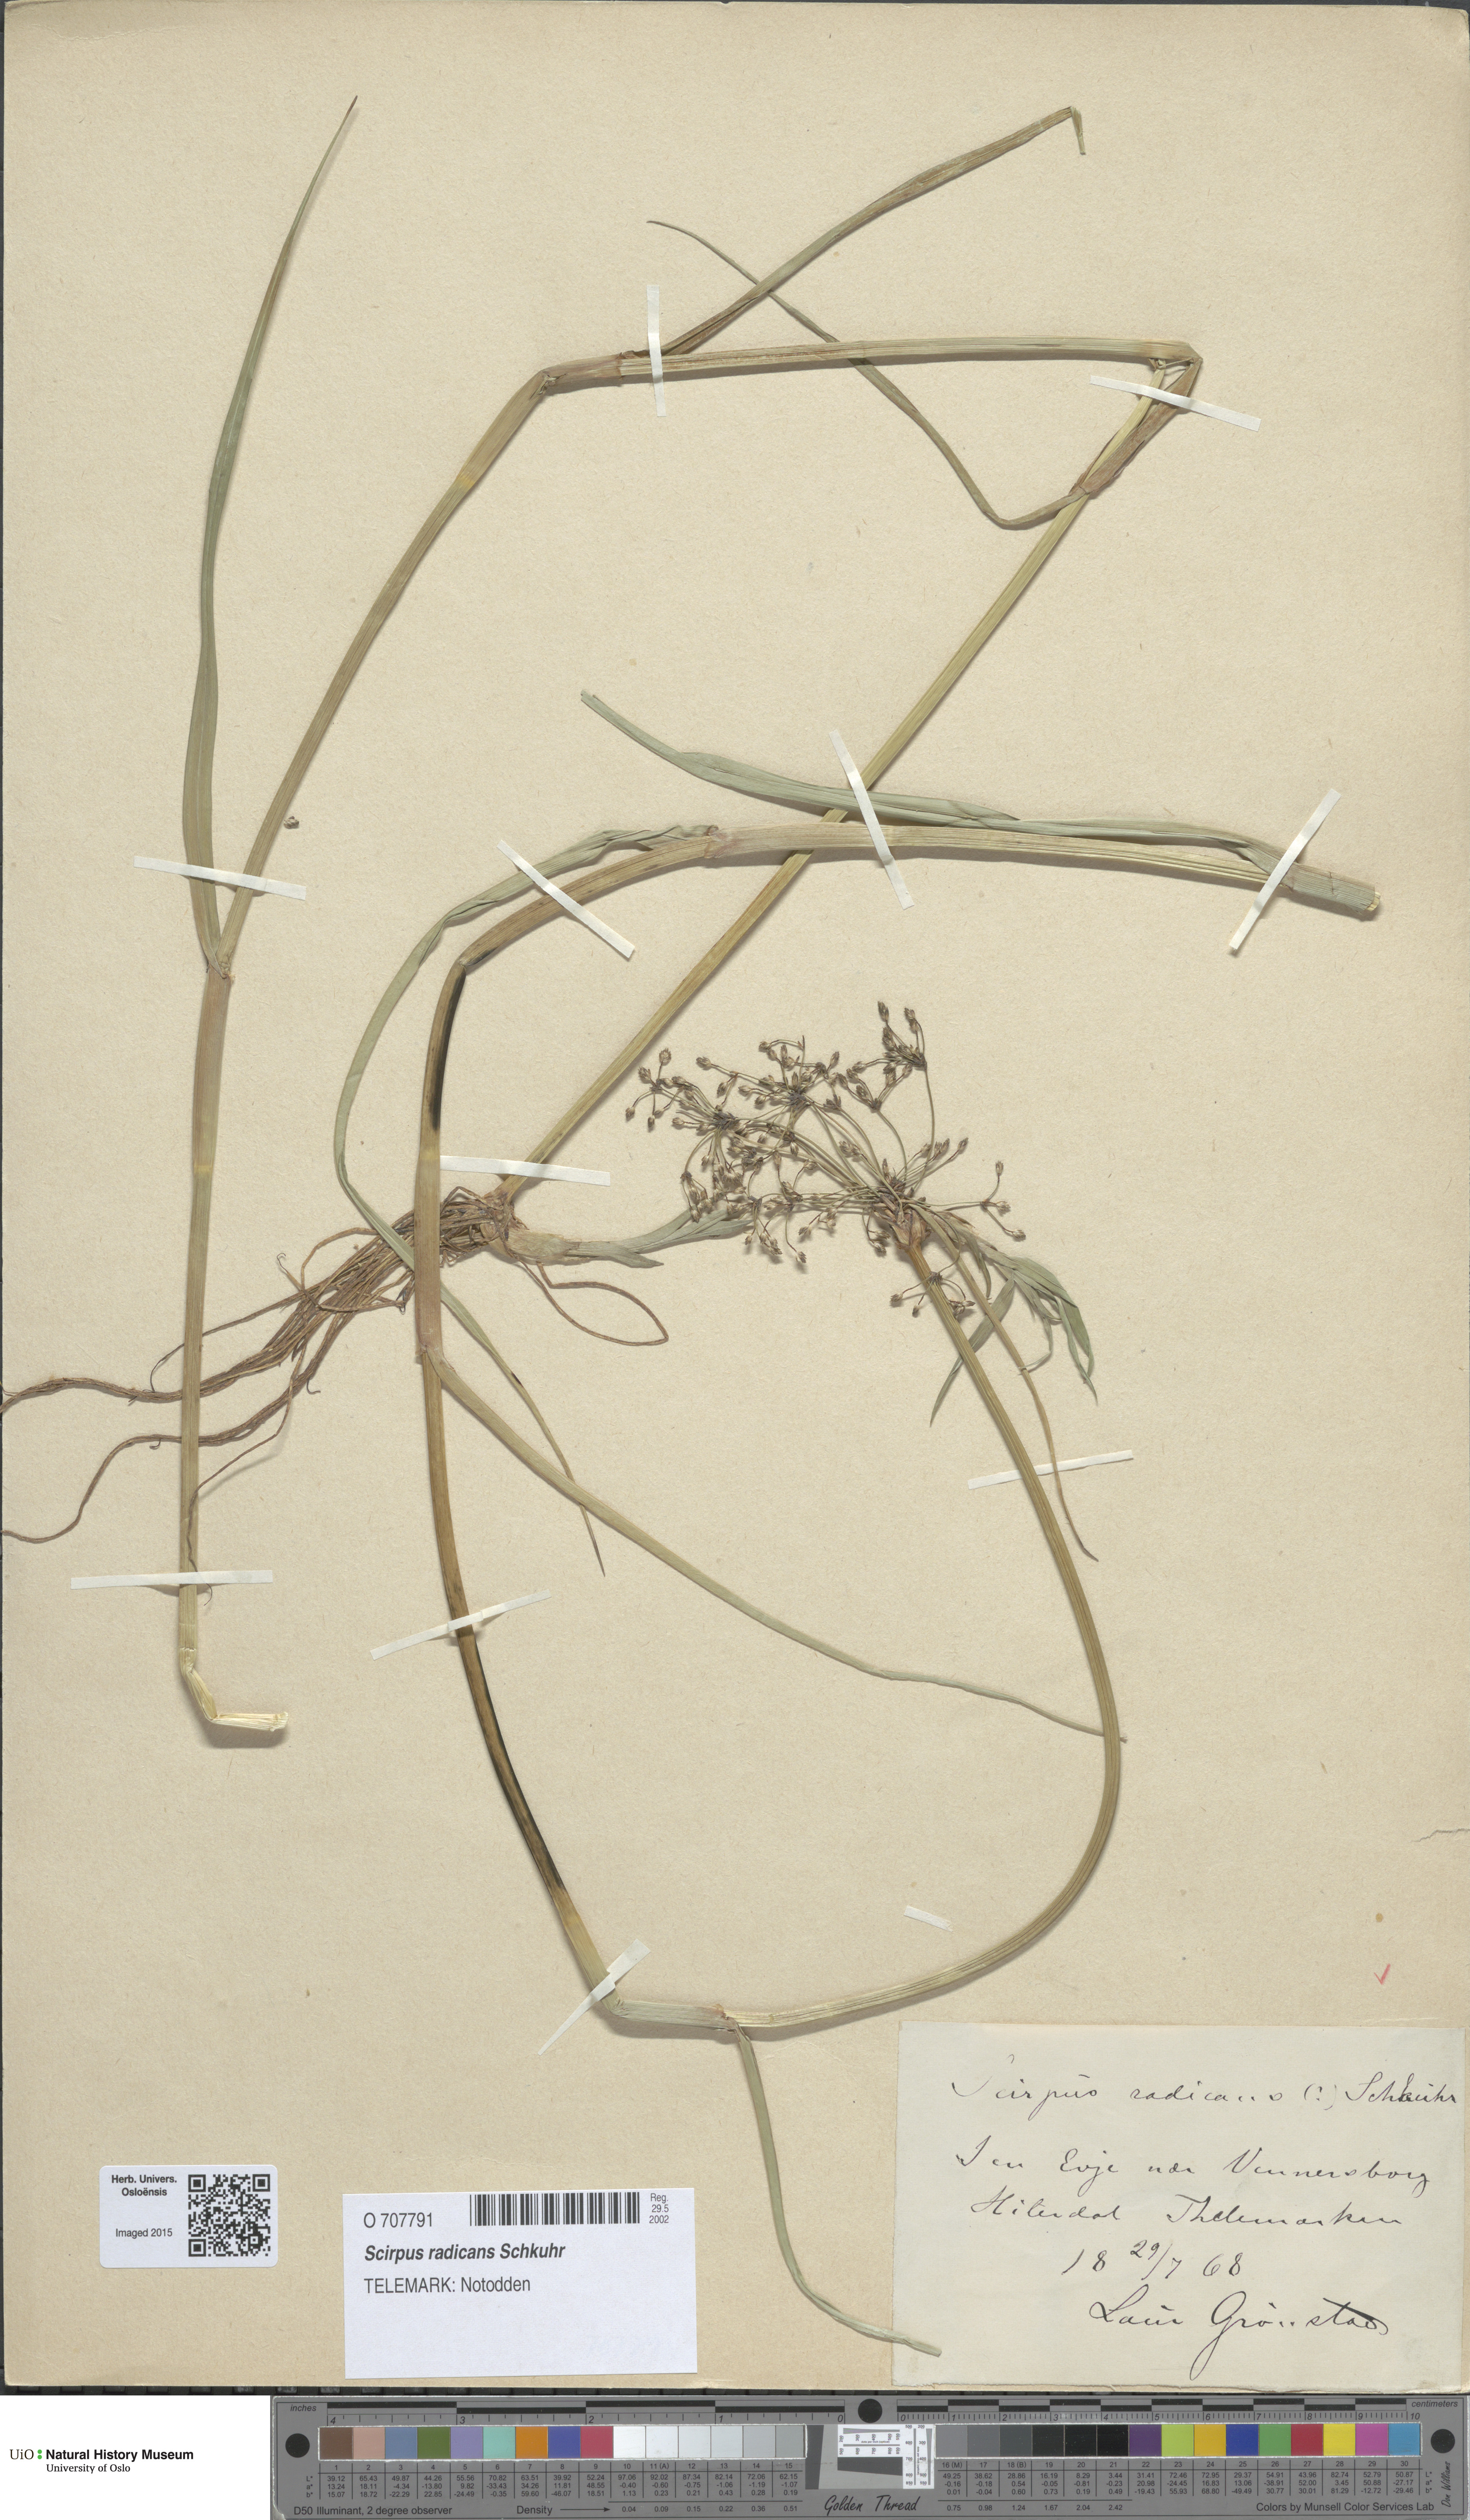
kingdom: Plantae
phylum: Tracheophyta
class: Liliopsida
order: Poales
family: Cyperaceae
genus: Scirpus
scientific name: Scirpus radicans
